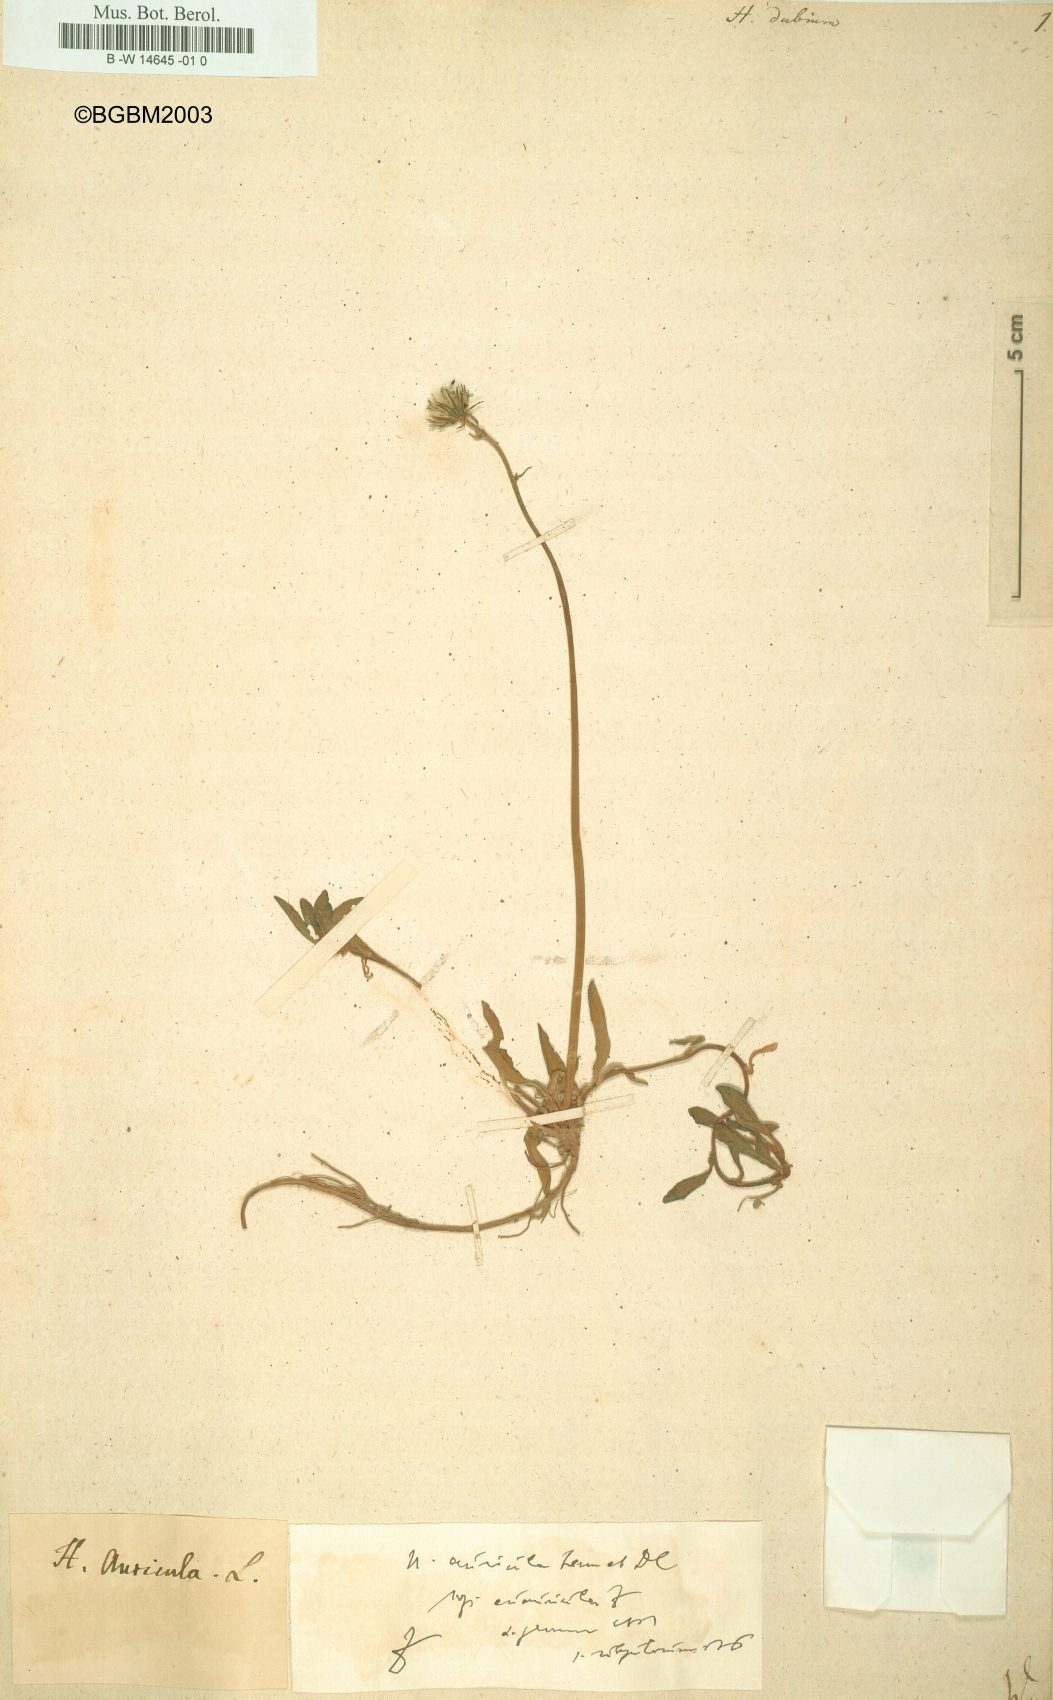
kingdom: Plantae
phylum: Tracheophyta
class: Magnoliopsida
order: Asterales
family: Asteraceae
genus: Hieracium
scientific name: Hieracium dubium
